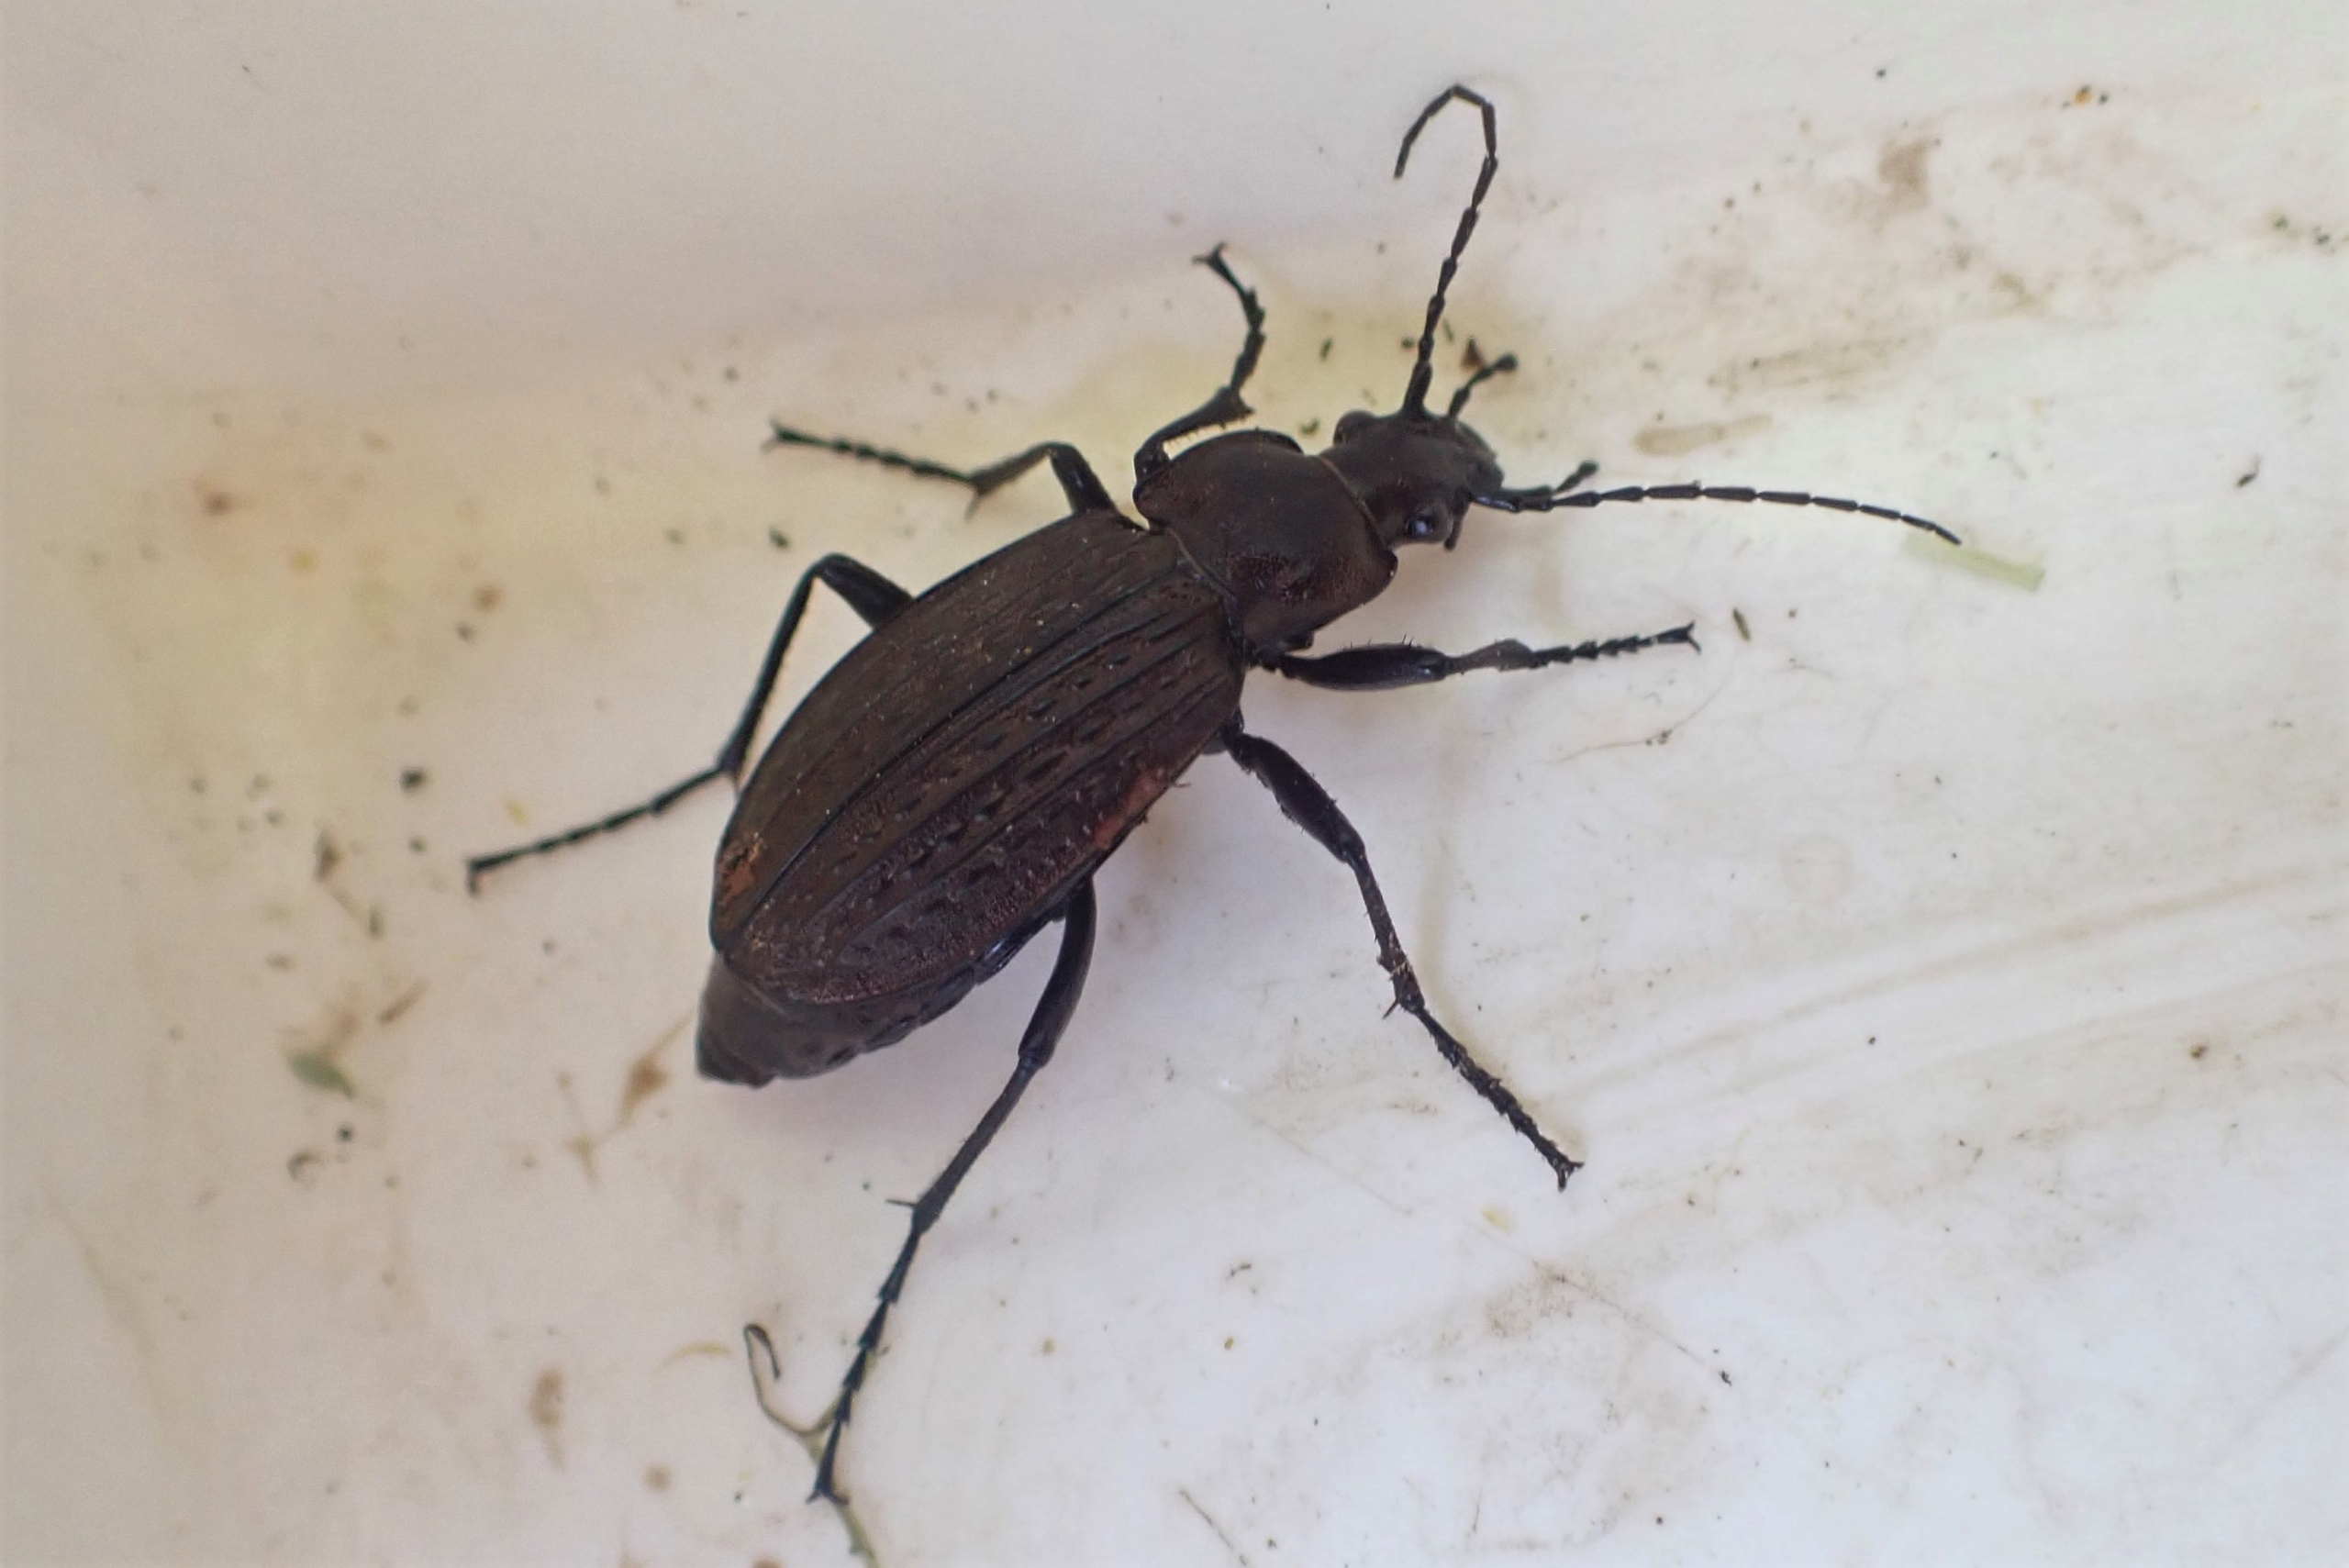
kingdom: Animalia
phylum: Arthropoda
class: Insecta
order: Coleoptera
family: Carabidae
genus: Carabus
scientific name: Carabus granulatus
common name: Kornet løber
